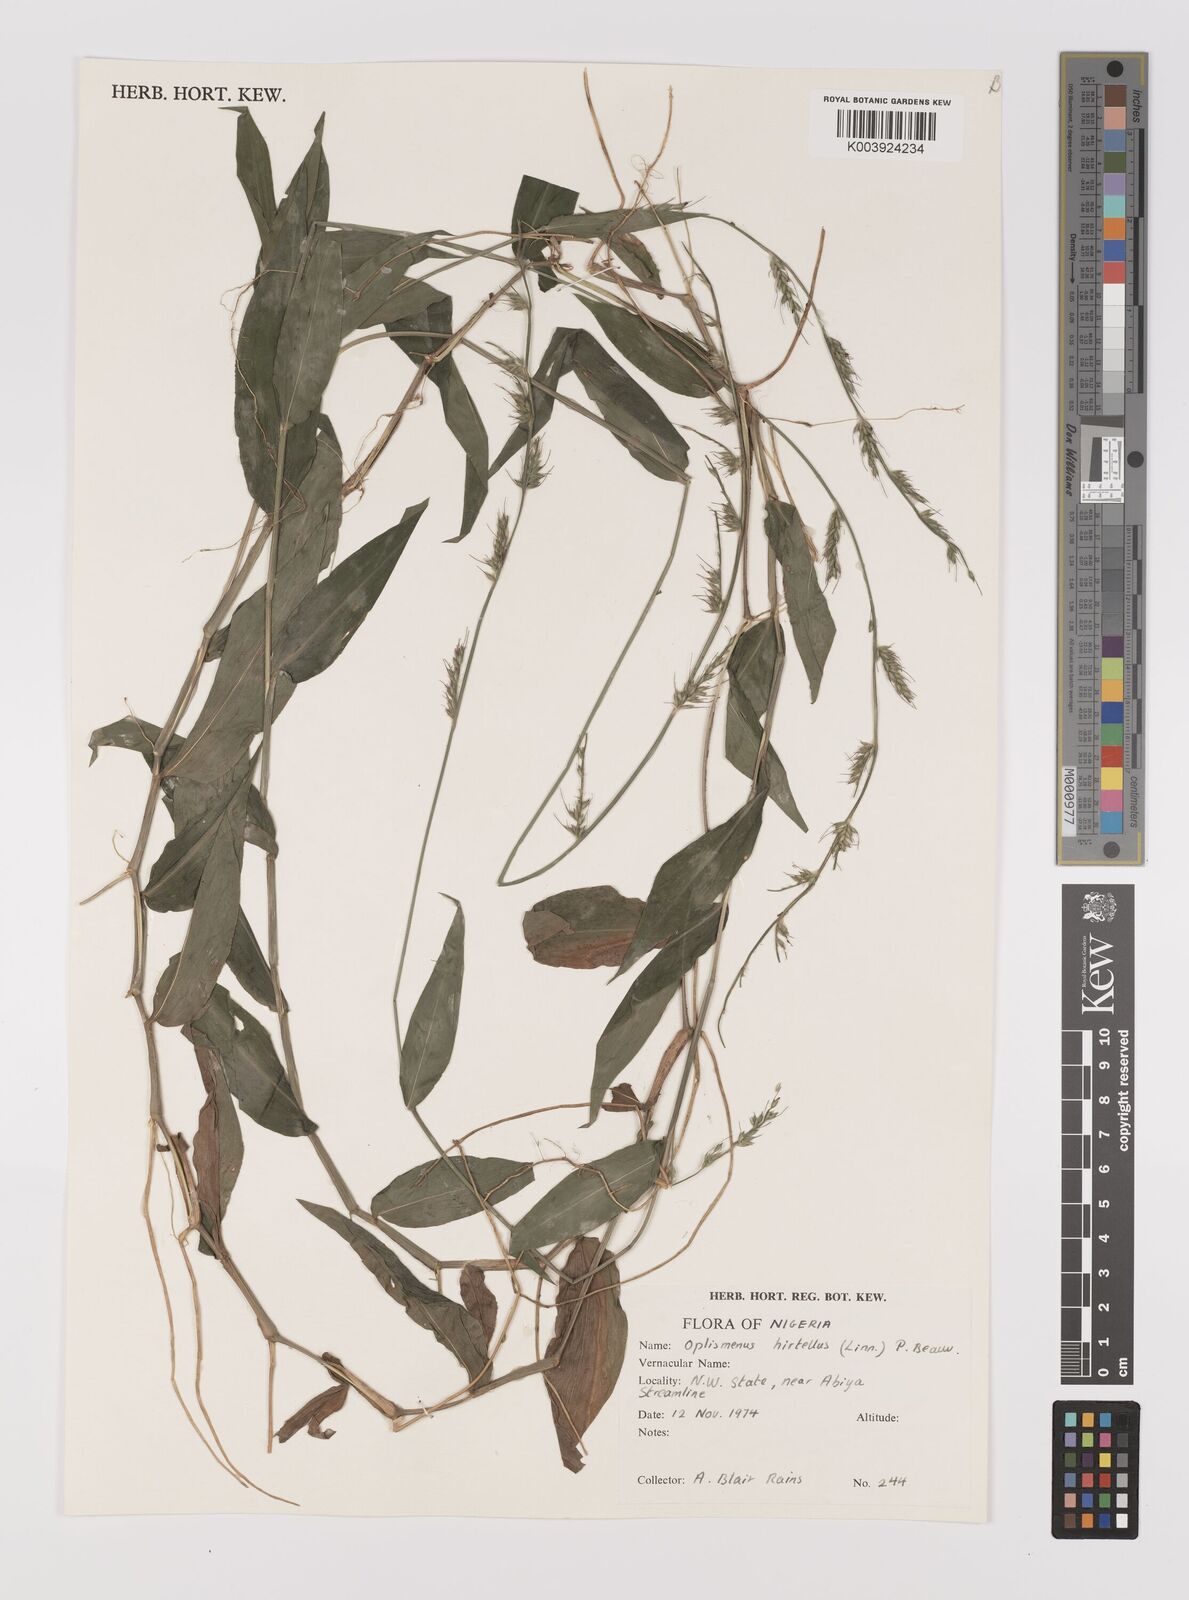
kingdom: Plantae
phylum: Tracheophyta
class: Liliopsida
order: Poales
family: Poaceae
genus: Oplismenus
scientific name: Oplismenus hirtellus
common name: Basketgrass
